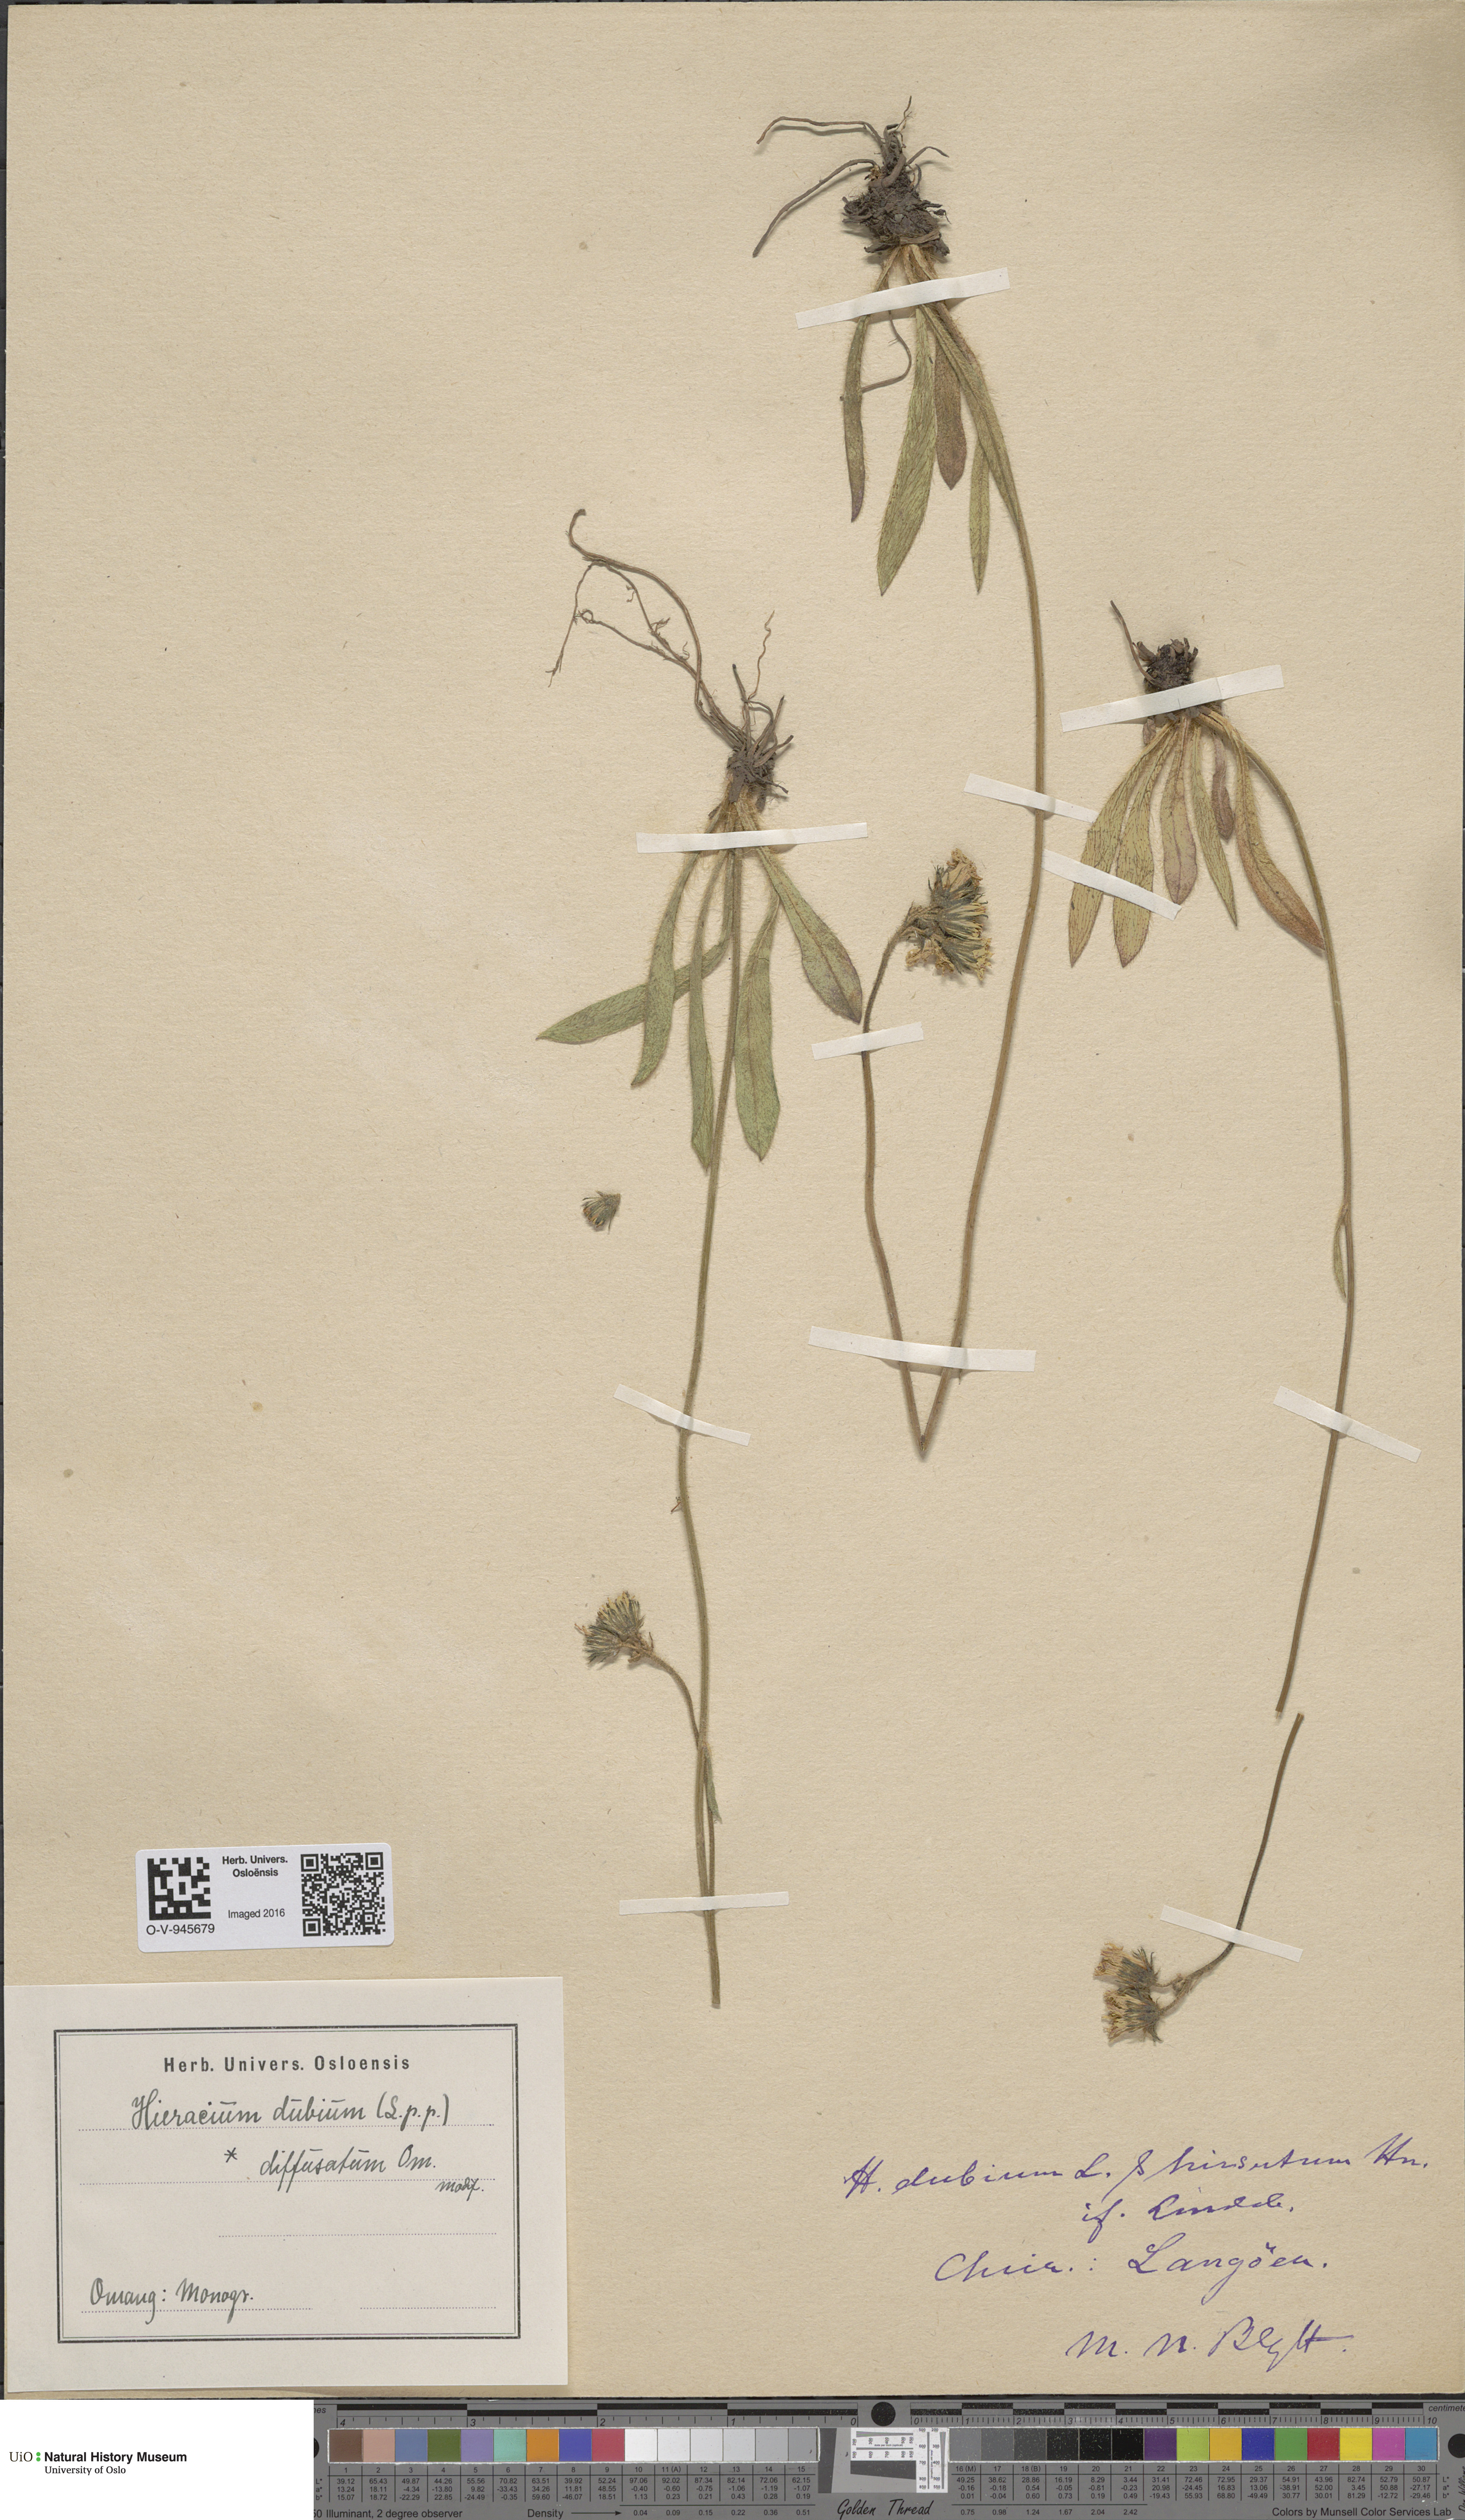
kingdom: Plantae
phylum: Tracheophyta
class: Magnoliopsida
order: Asterales
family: Asteraceae
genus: Pilosella
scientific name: Pilosella dubia
